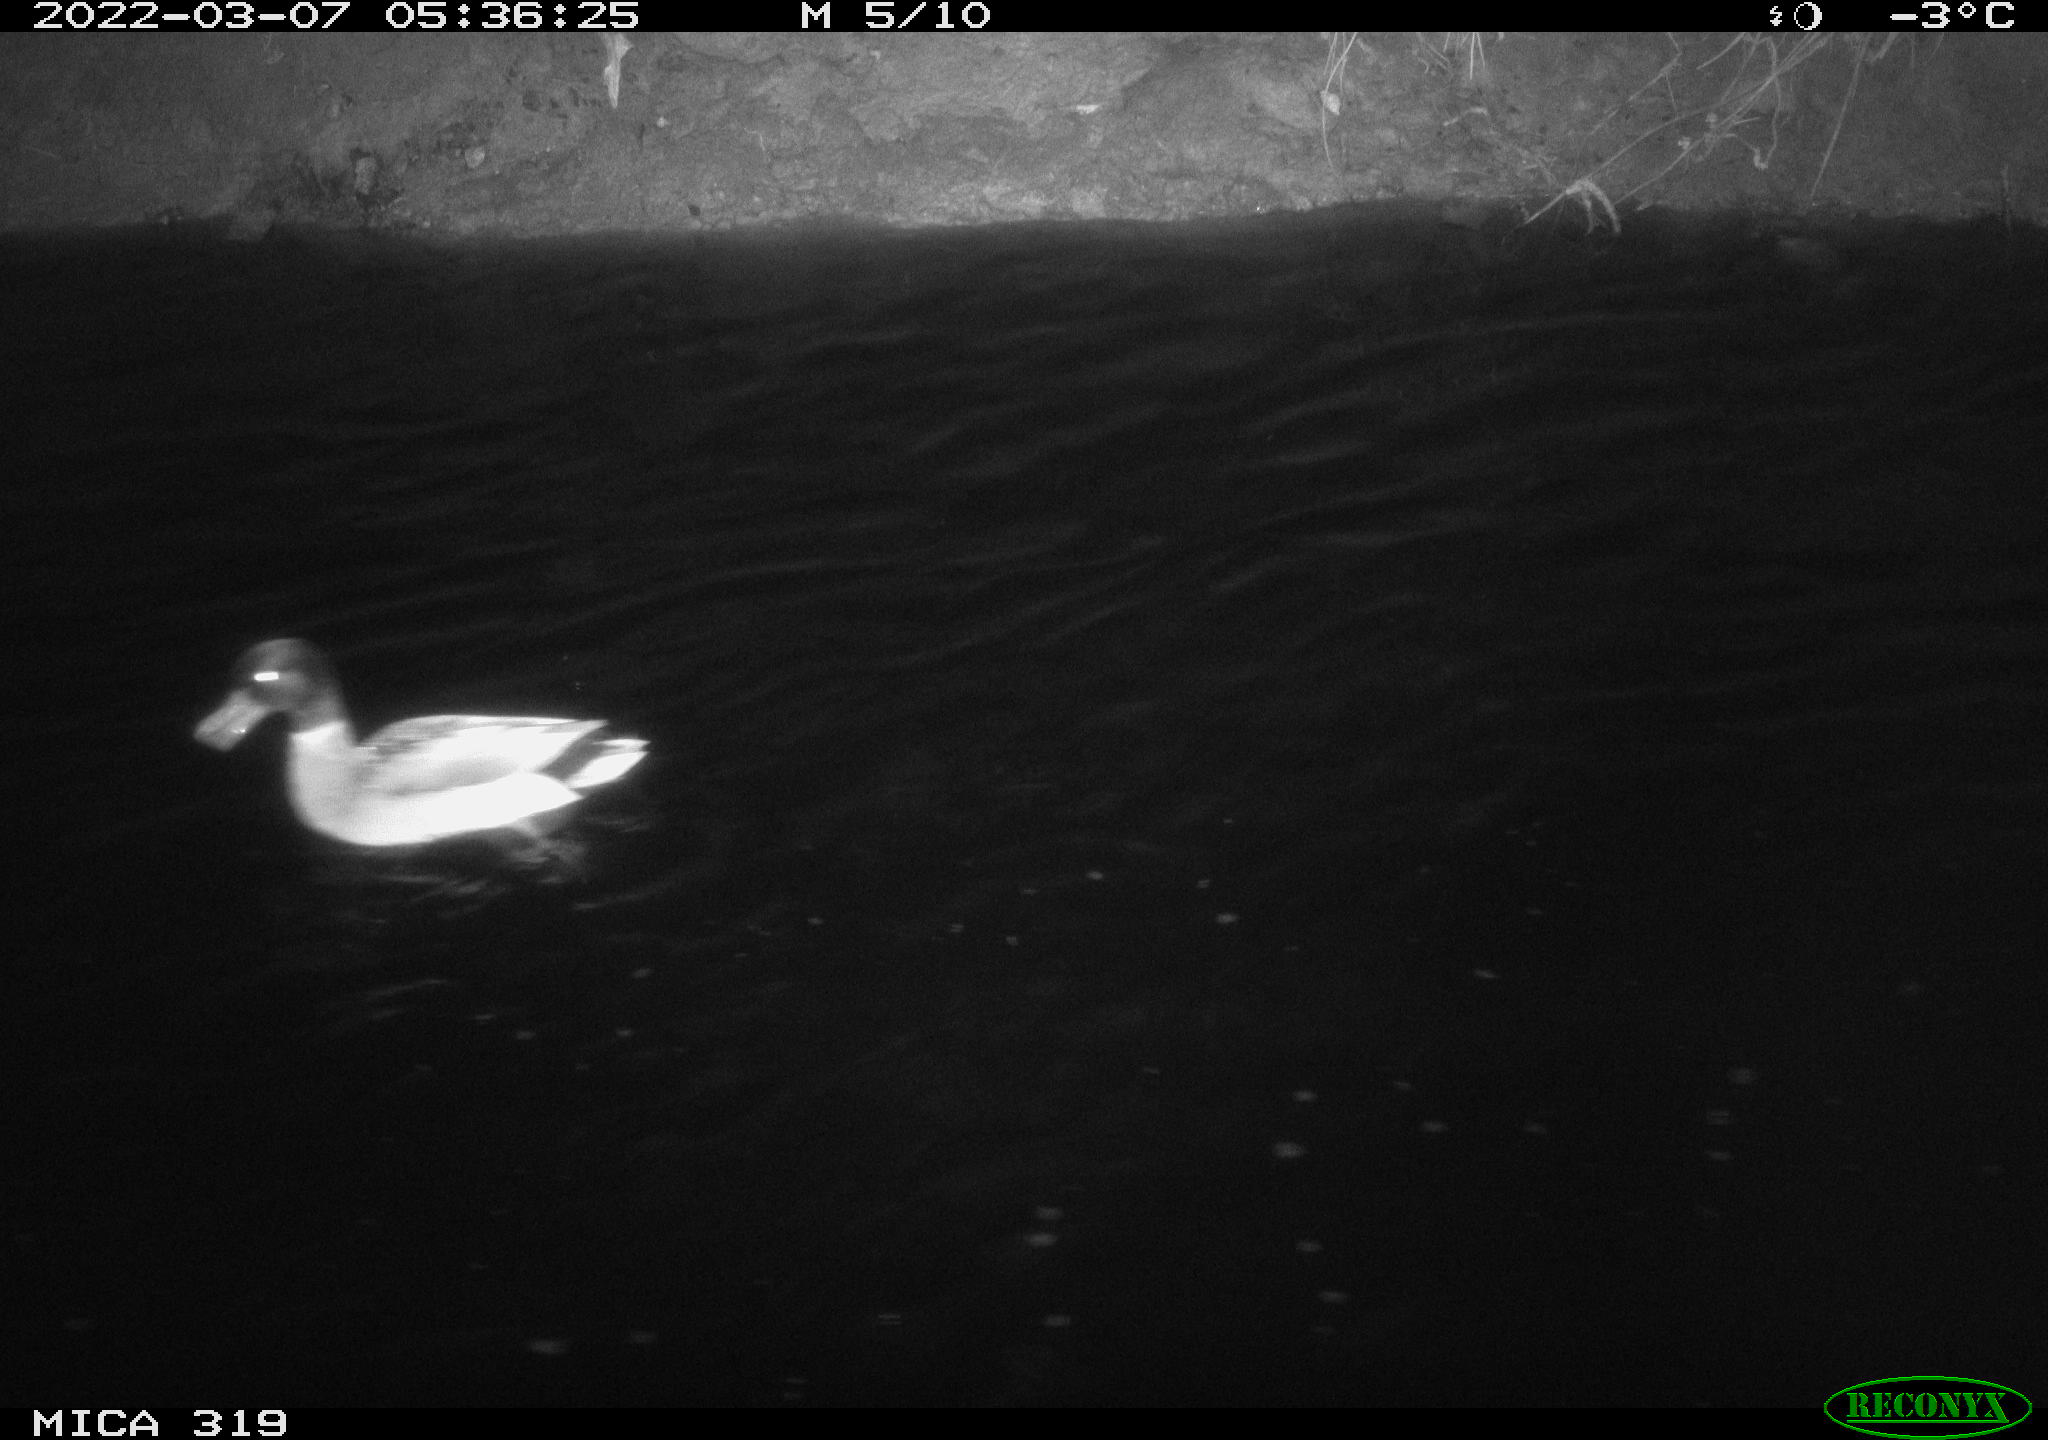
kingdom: Animalia
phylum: Chordata
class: Aves
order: Anseriformes
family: Anatidae
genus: Mareca
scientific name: Mareca strepera
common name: Gadwall
